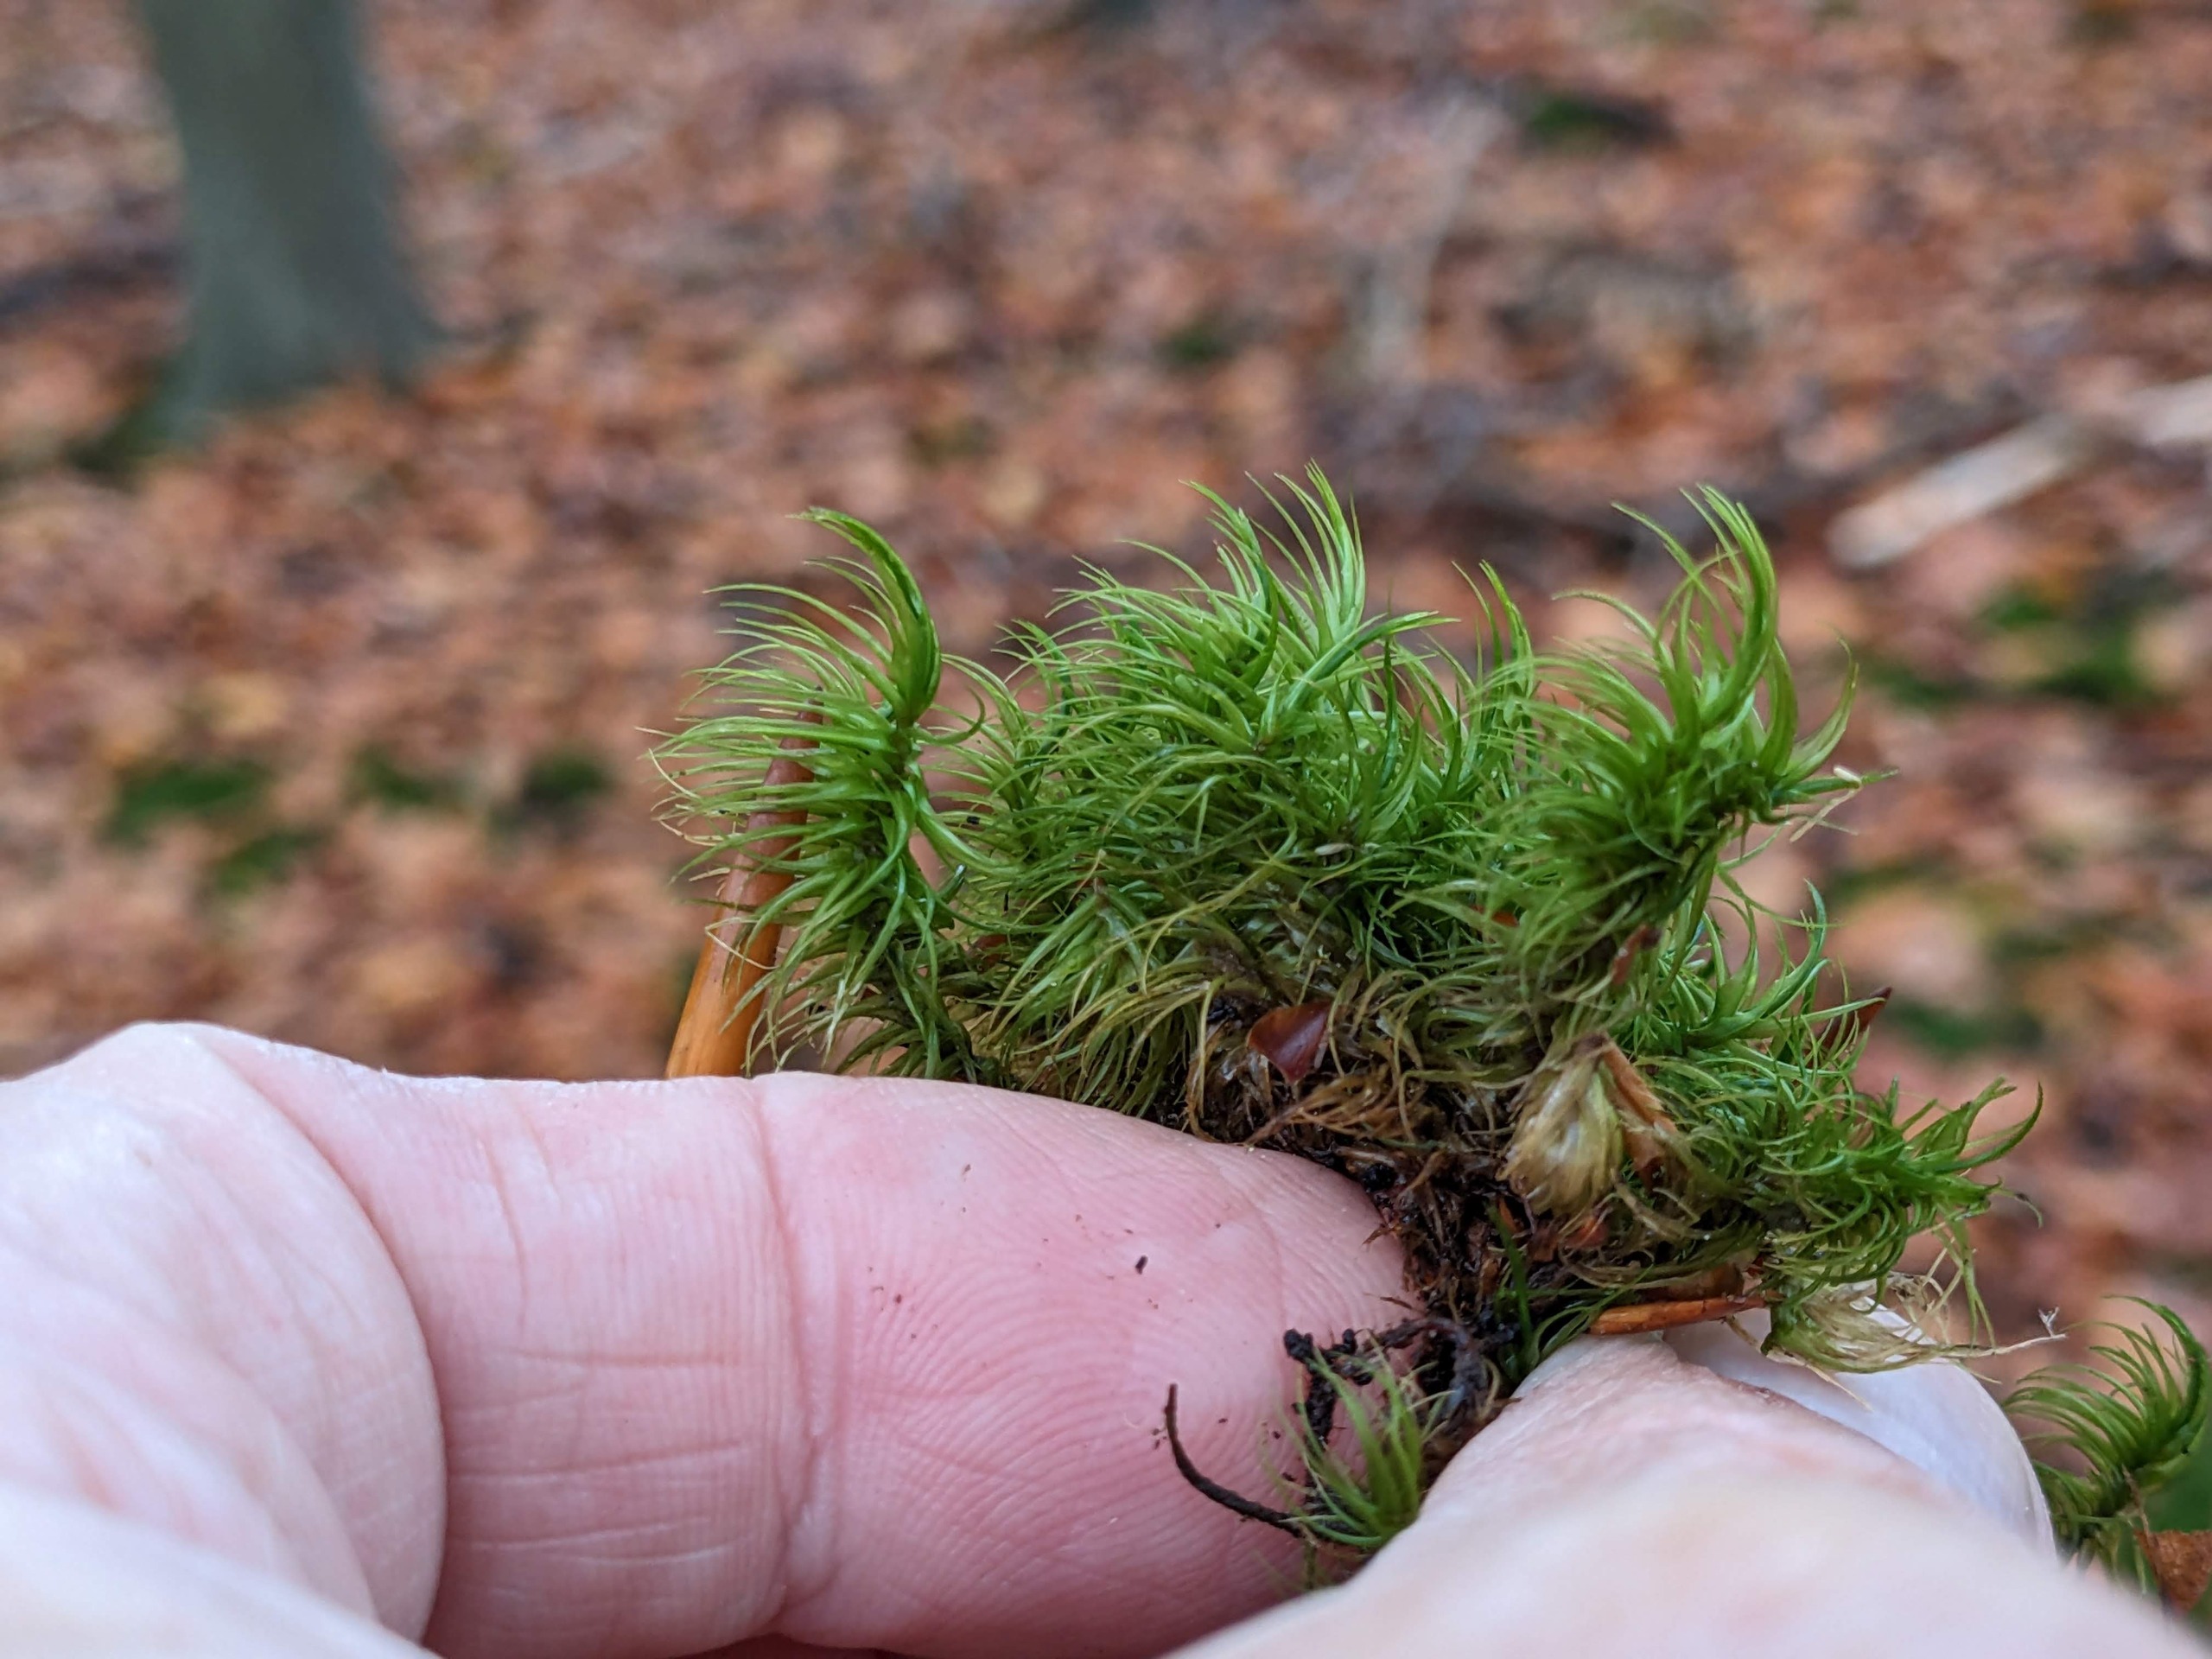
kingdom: Plantae
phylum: Bryophyta
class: Bryopsida
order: Dicranales
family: Dicranaceae
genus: Dicranum
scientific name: Dicranum majus
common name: Stor kløvtand
